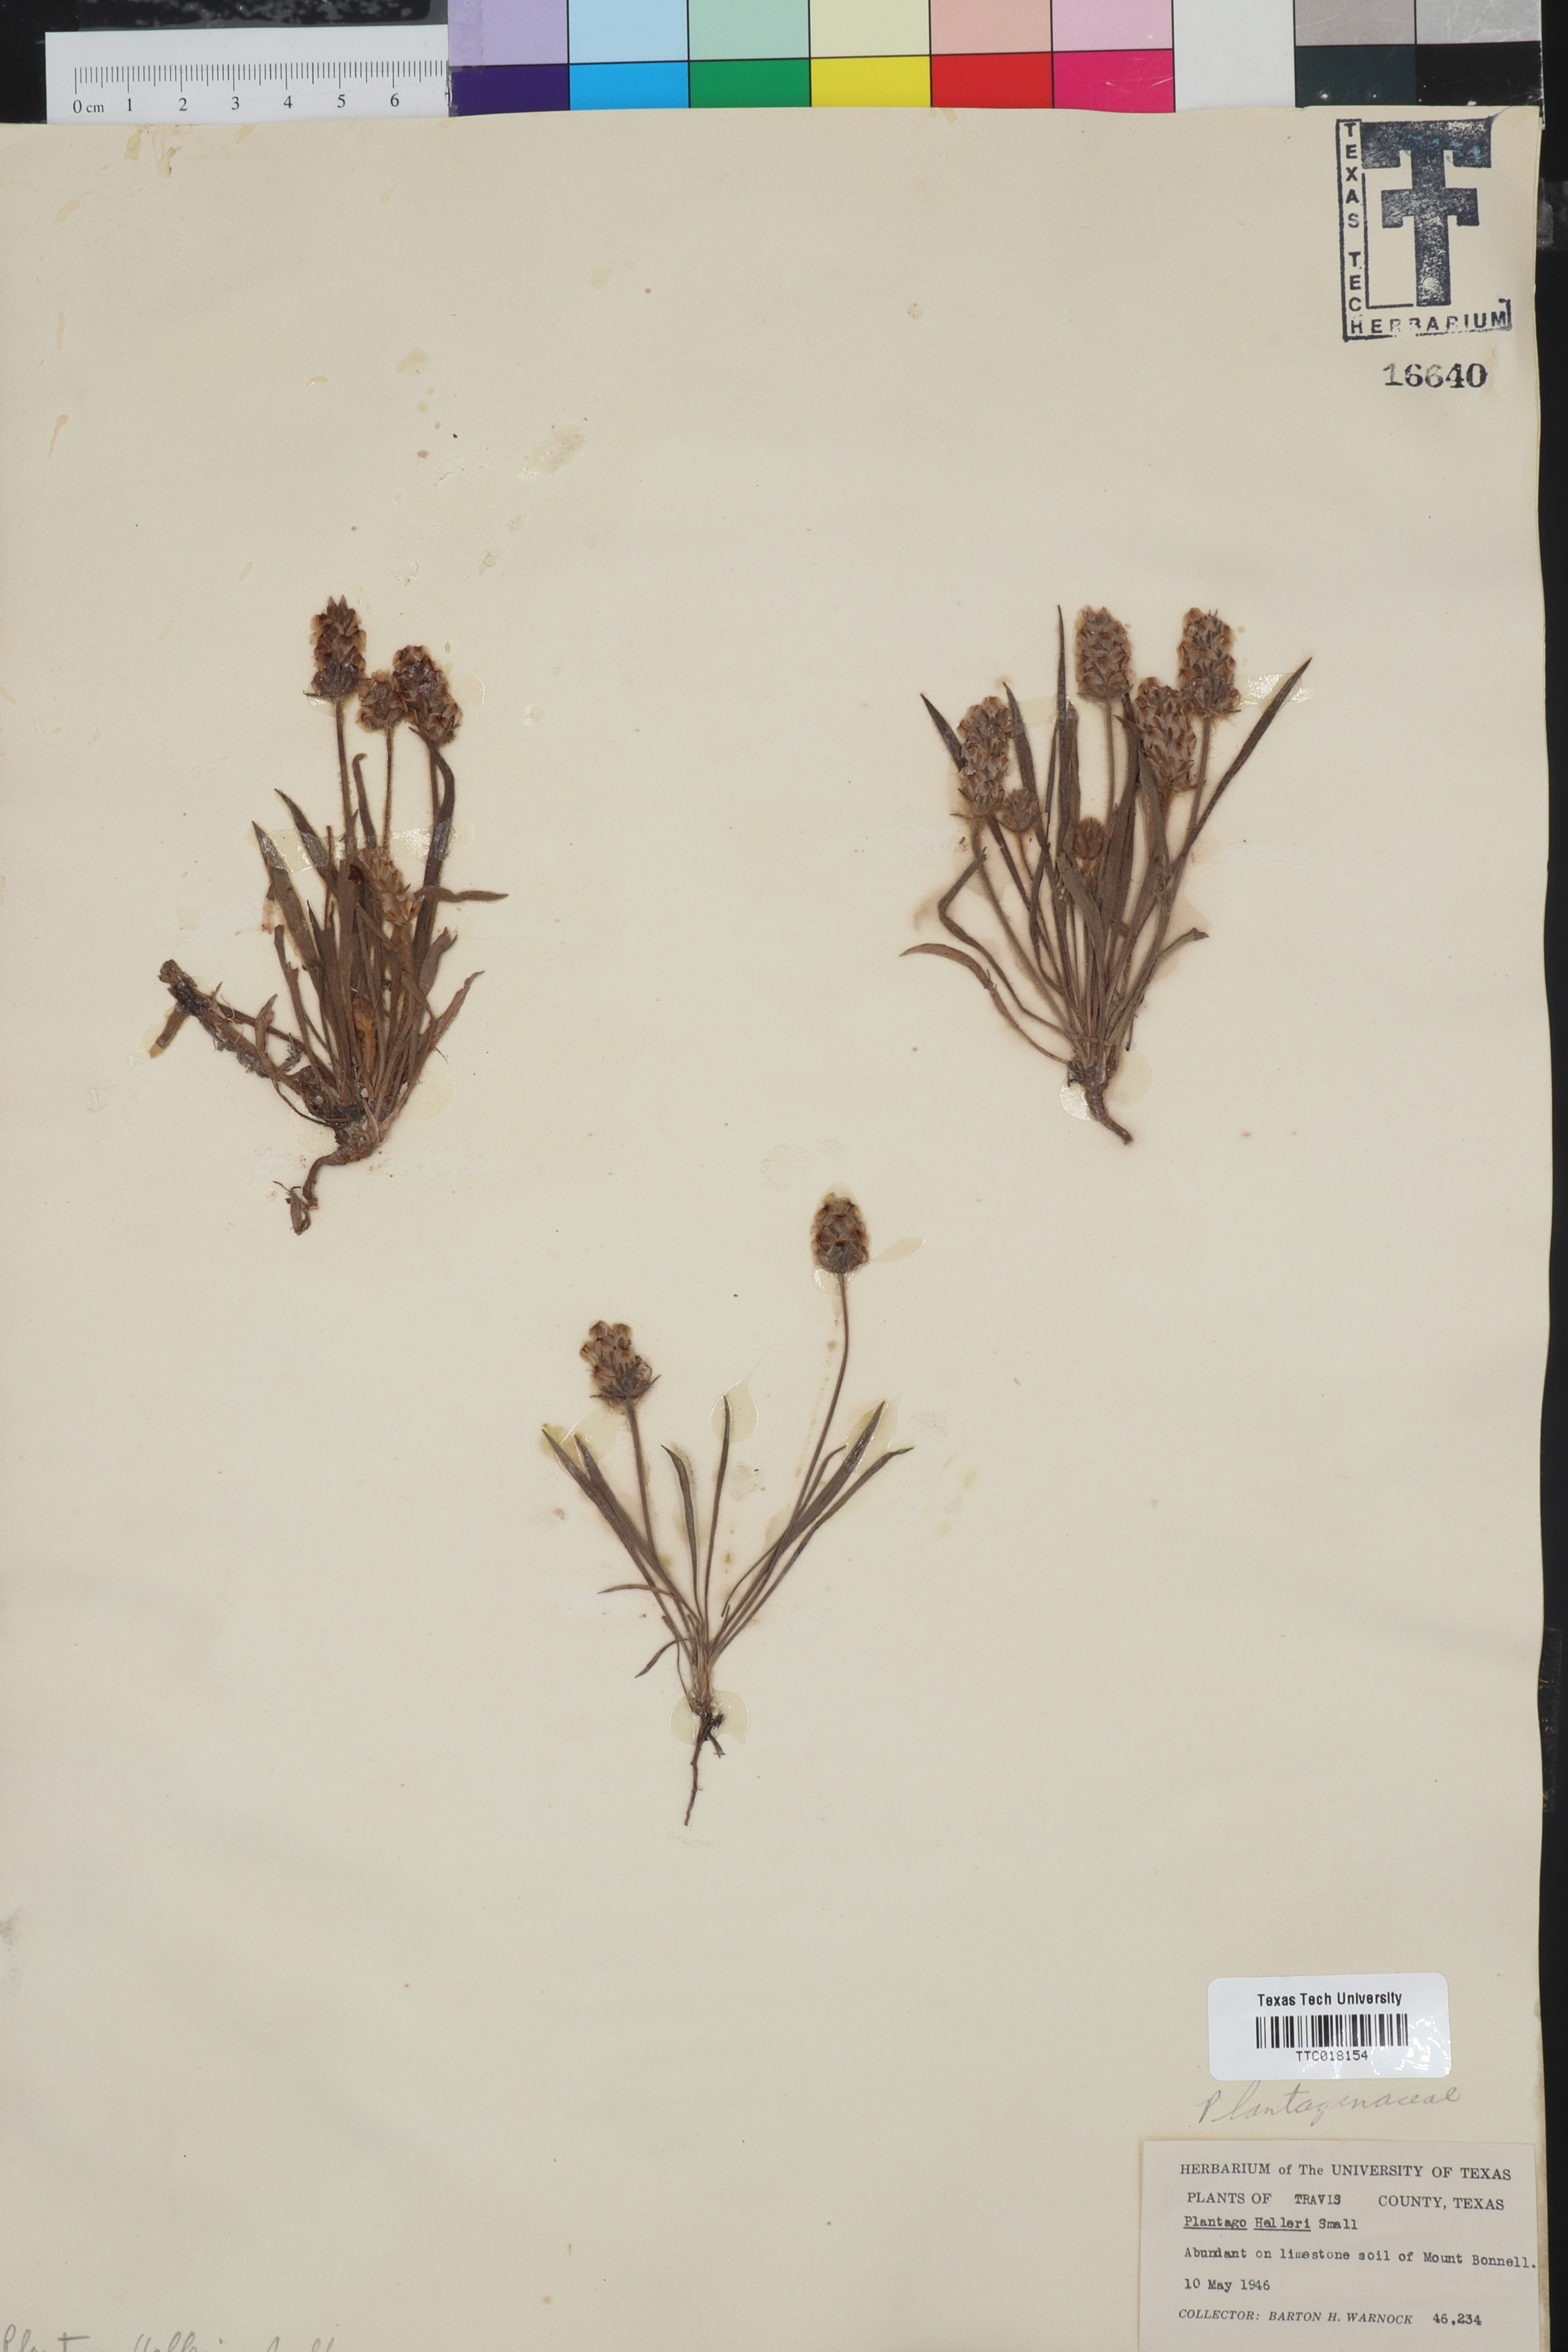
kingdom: Plantae
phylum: Tracheophyta
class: Magnoliopsida
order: Lamiales
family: Plantaginaceae
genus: Plantago
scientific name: Plantago helleri
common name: Heller's plantain
